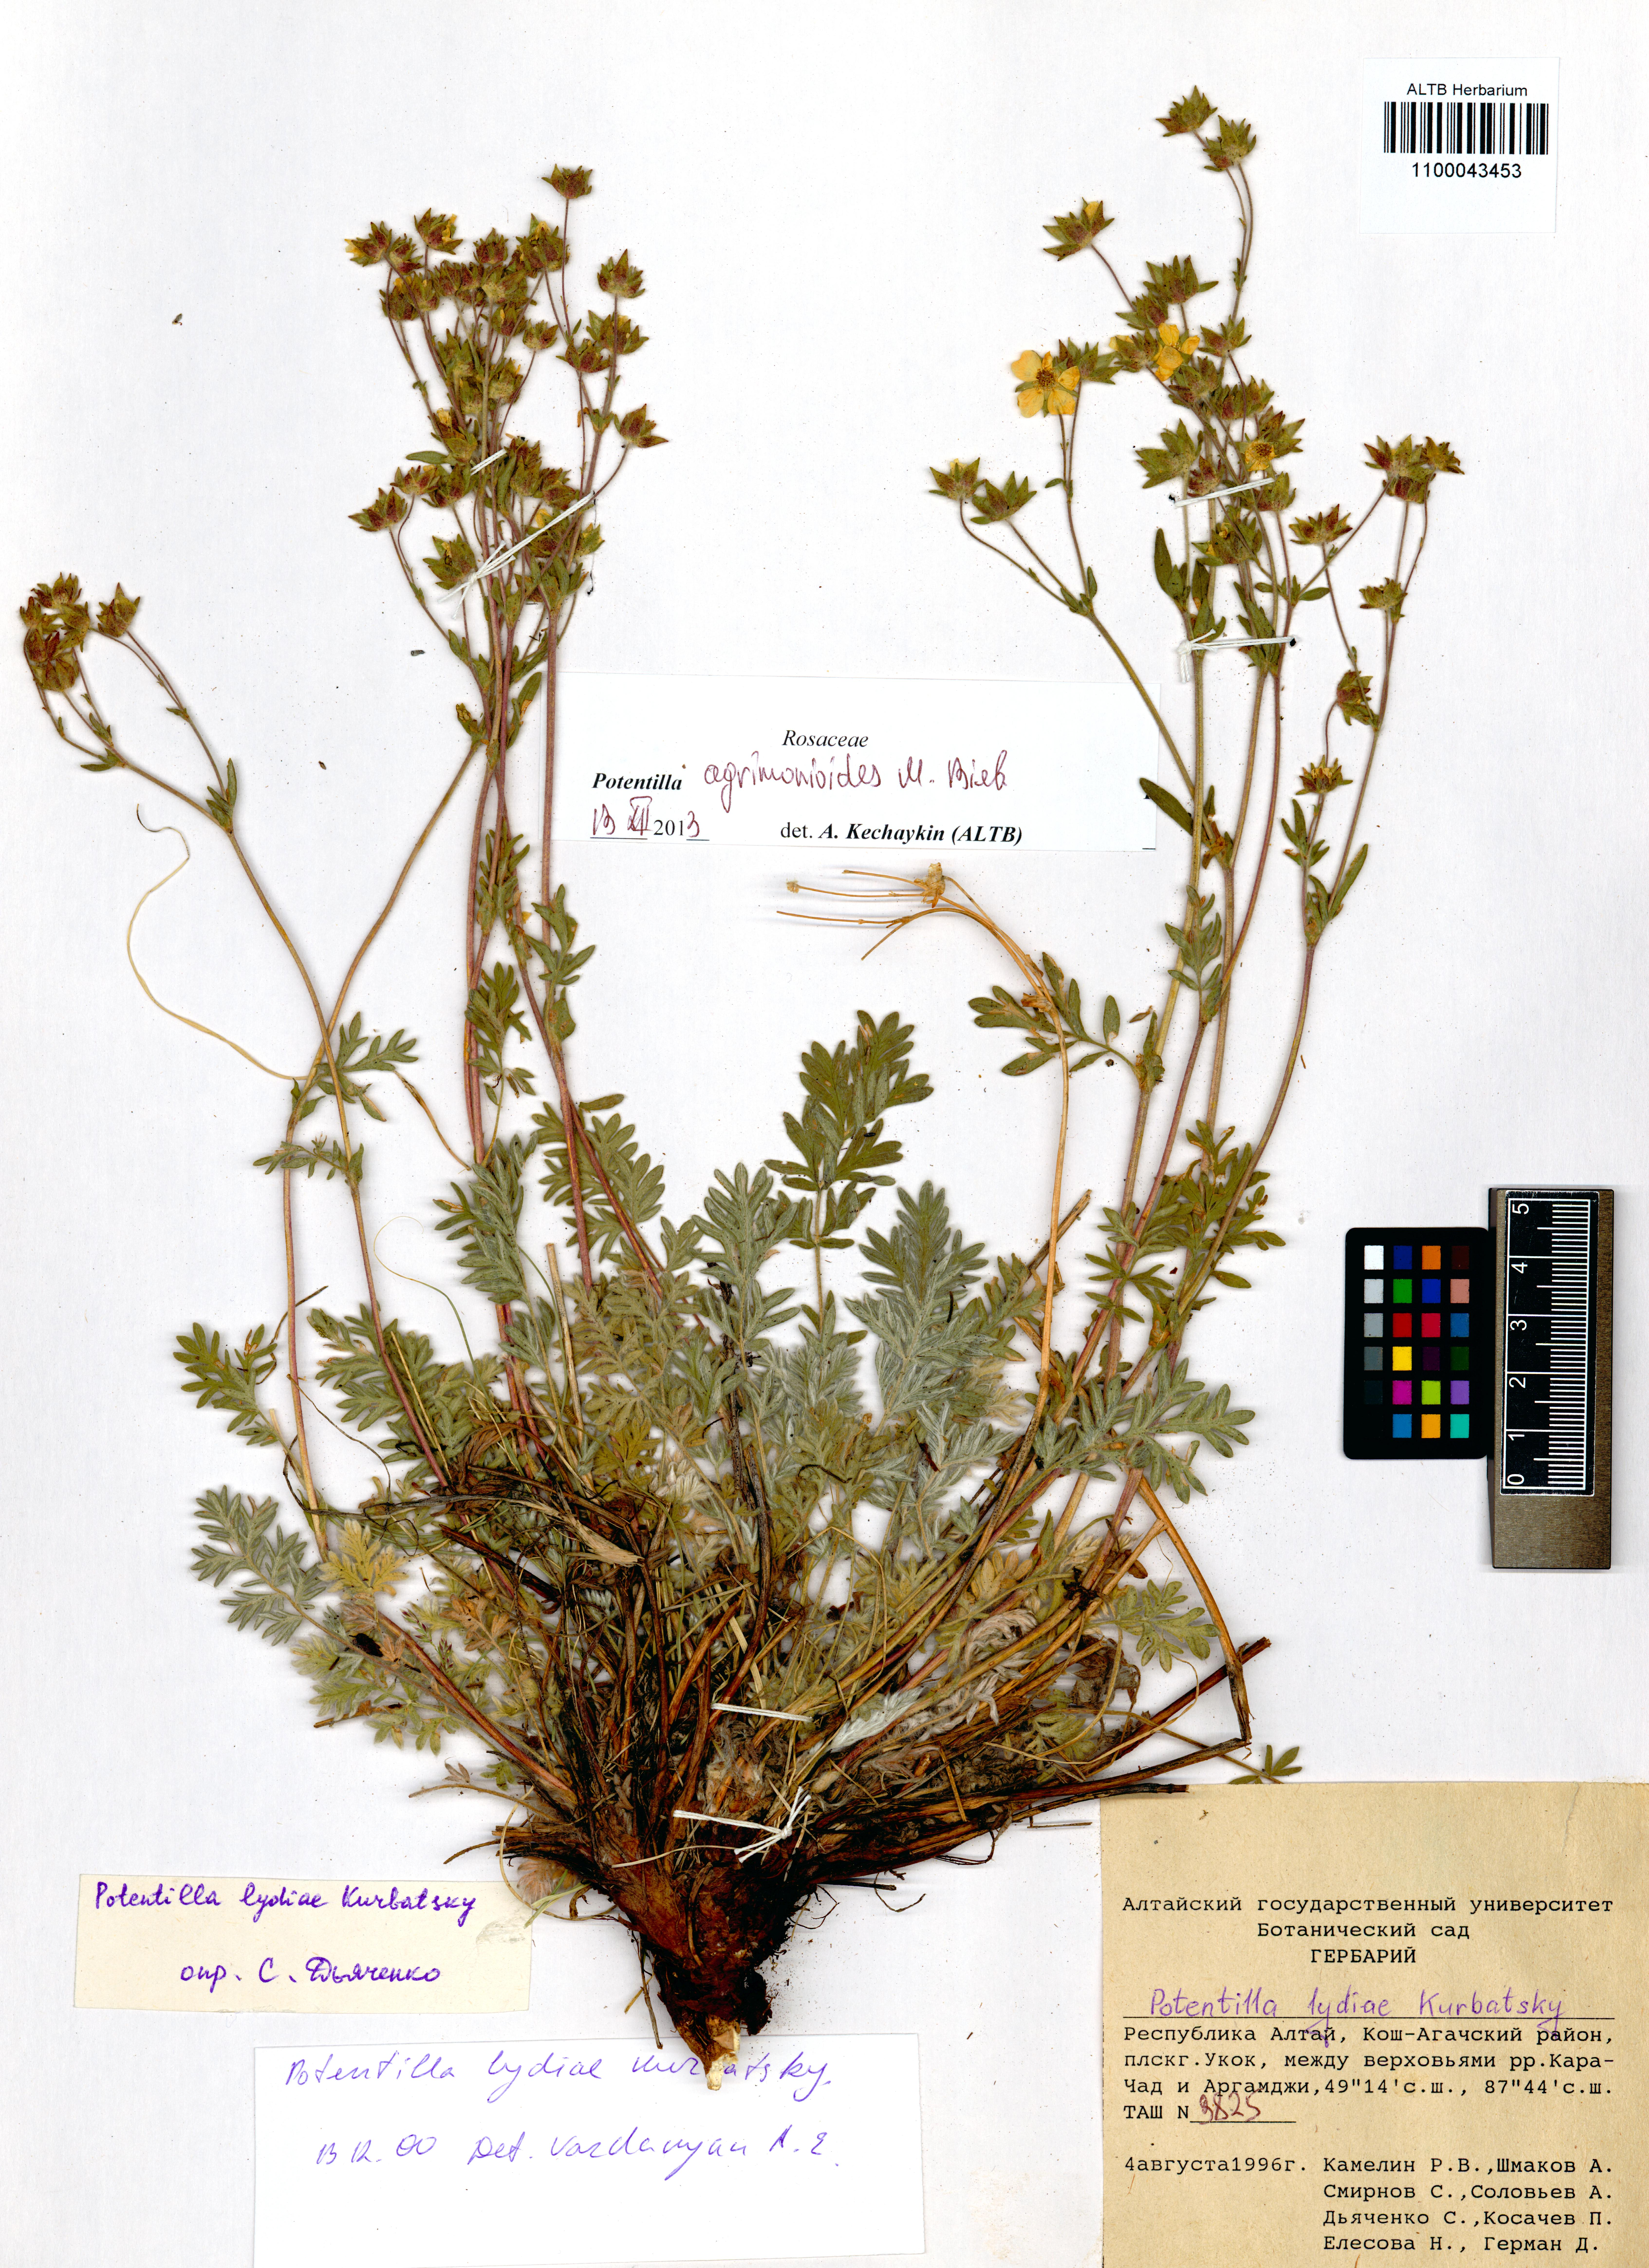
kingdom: Plantae
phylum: Tracheophyta
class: Magnoliopsida
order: Rosales
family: Rosaceae
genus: Potentilla
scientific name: Potentilla agrimonioides
